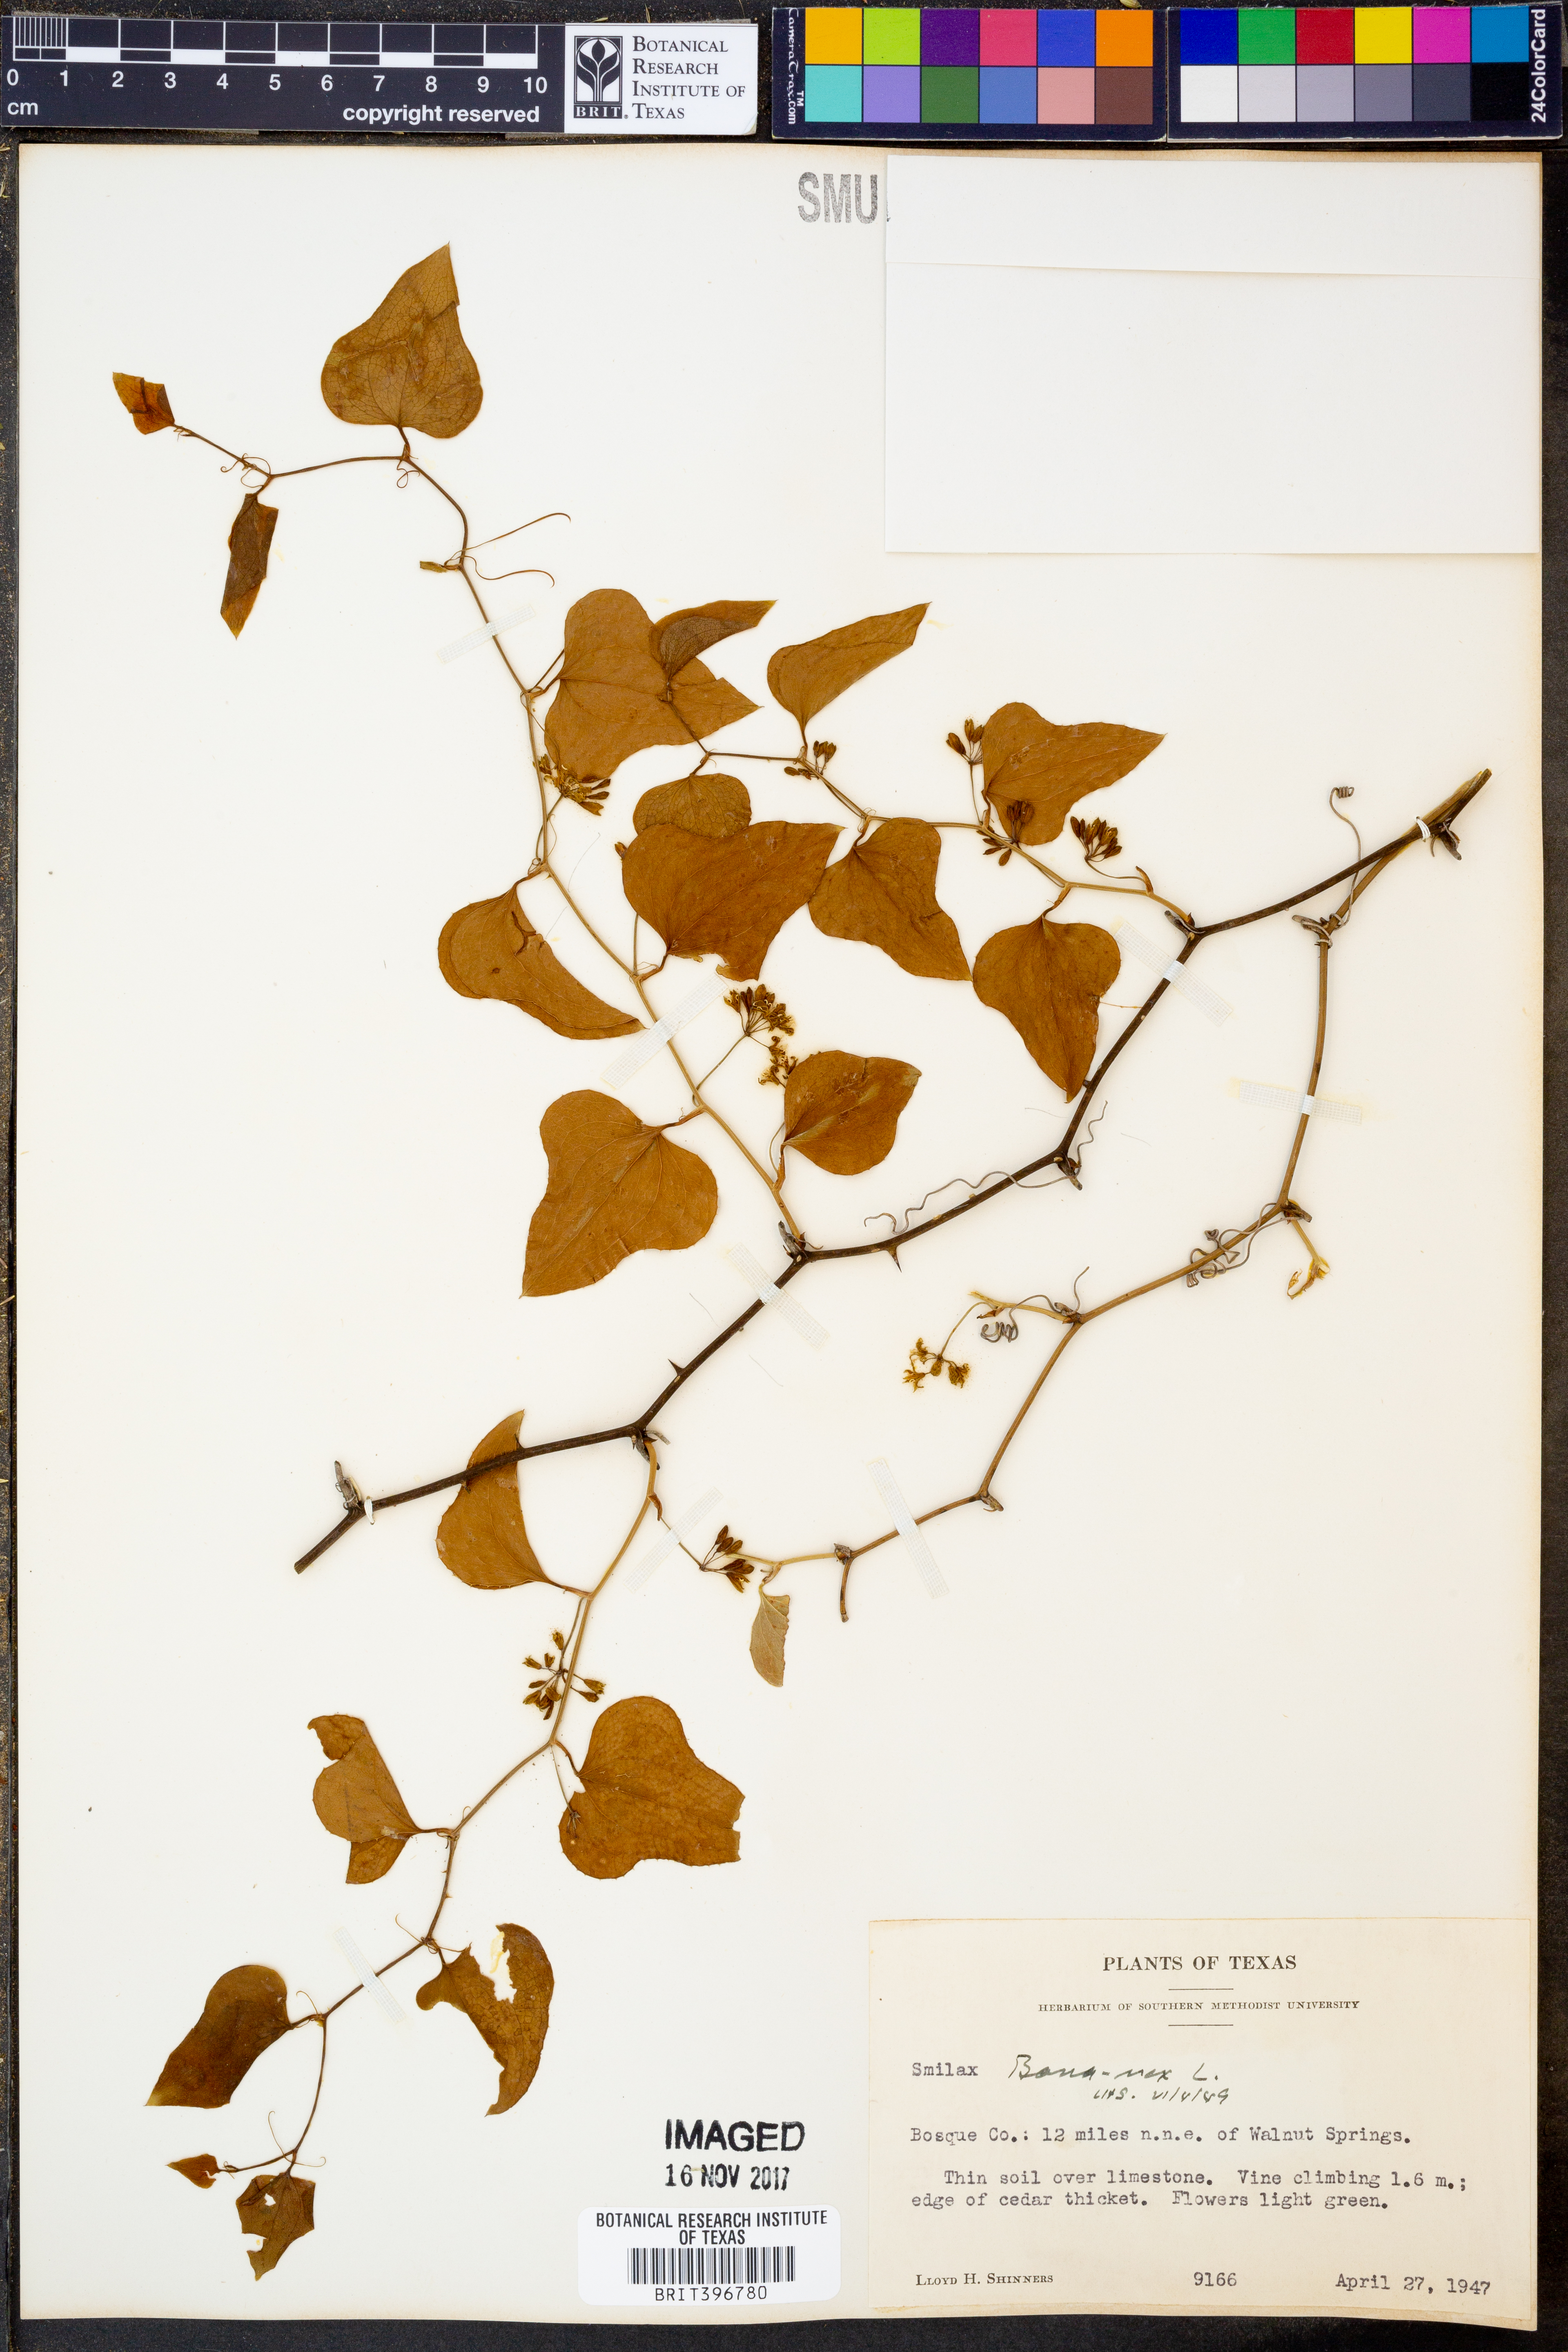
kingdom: Plantae
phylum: Tracheophyta
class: Liliopsida
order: Liliales
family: Smilacaceae
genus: Smilax
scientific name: Smilax bona-nox
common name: Catbrier
